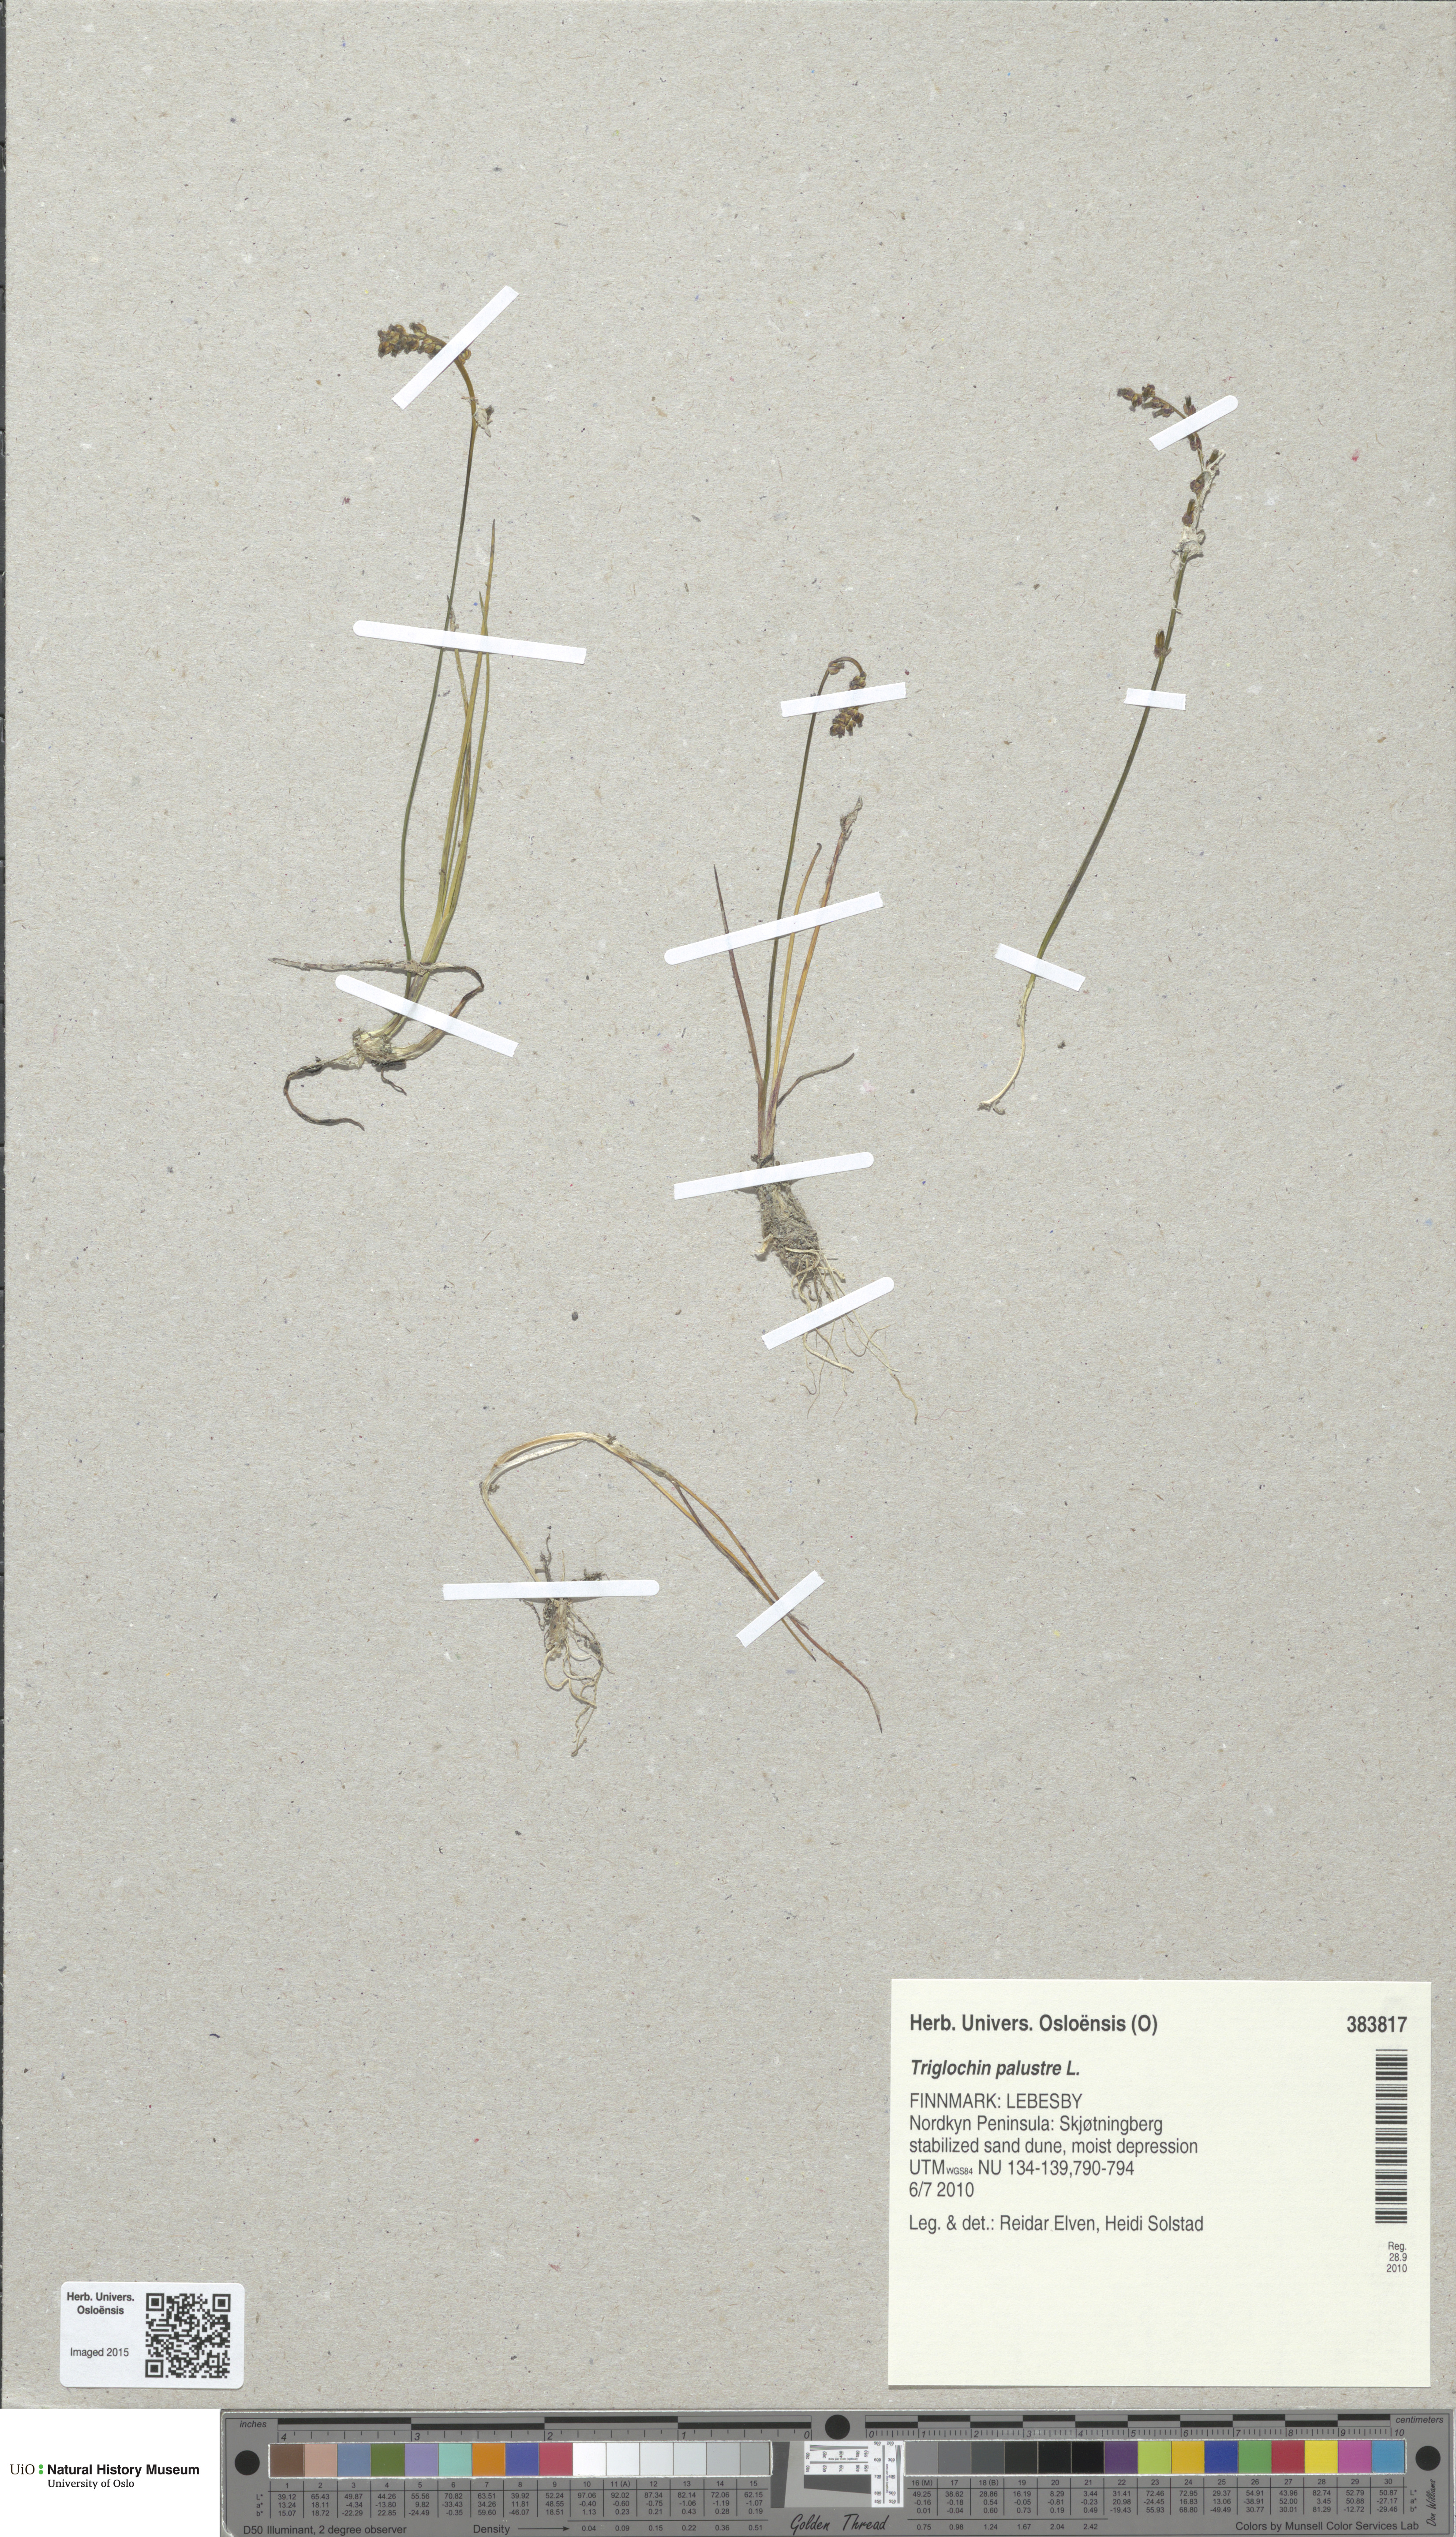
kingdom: Plantae
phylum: Tracheophyta
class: Liliopsida
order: Alismatales
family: Juncaginaceae
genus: Triglochin
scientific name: Triglochin palustris
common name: Marsh arrowgrass
